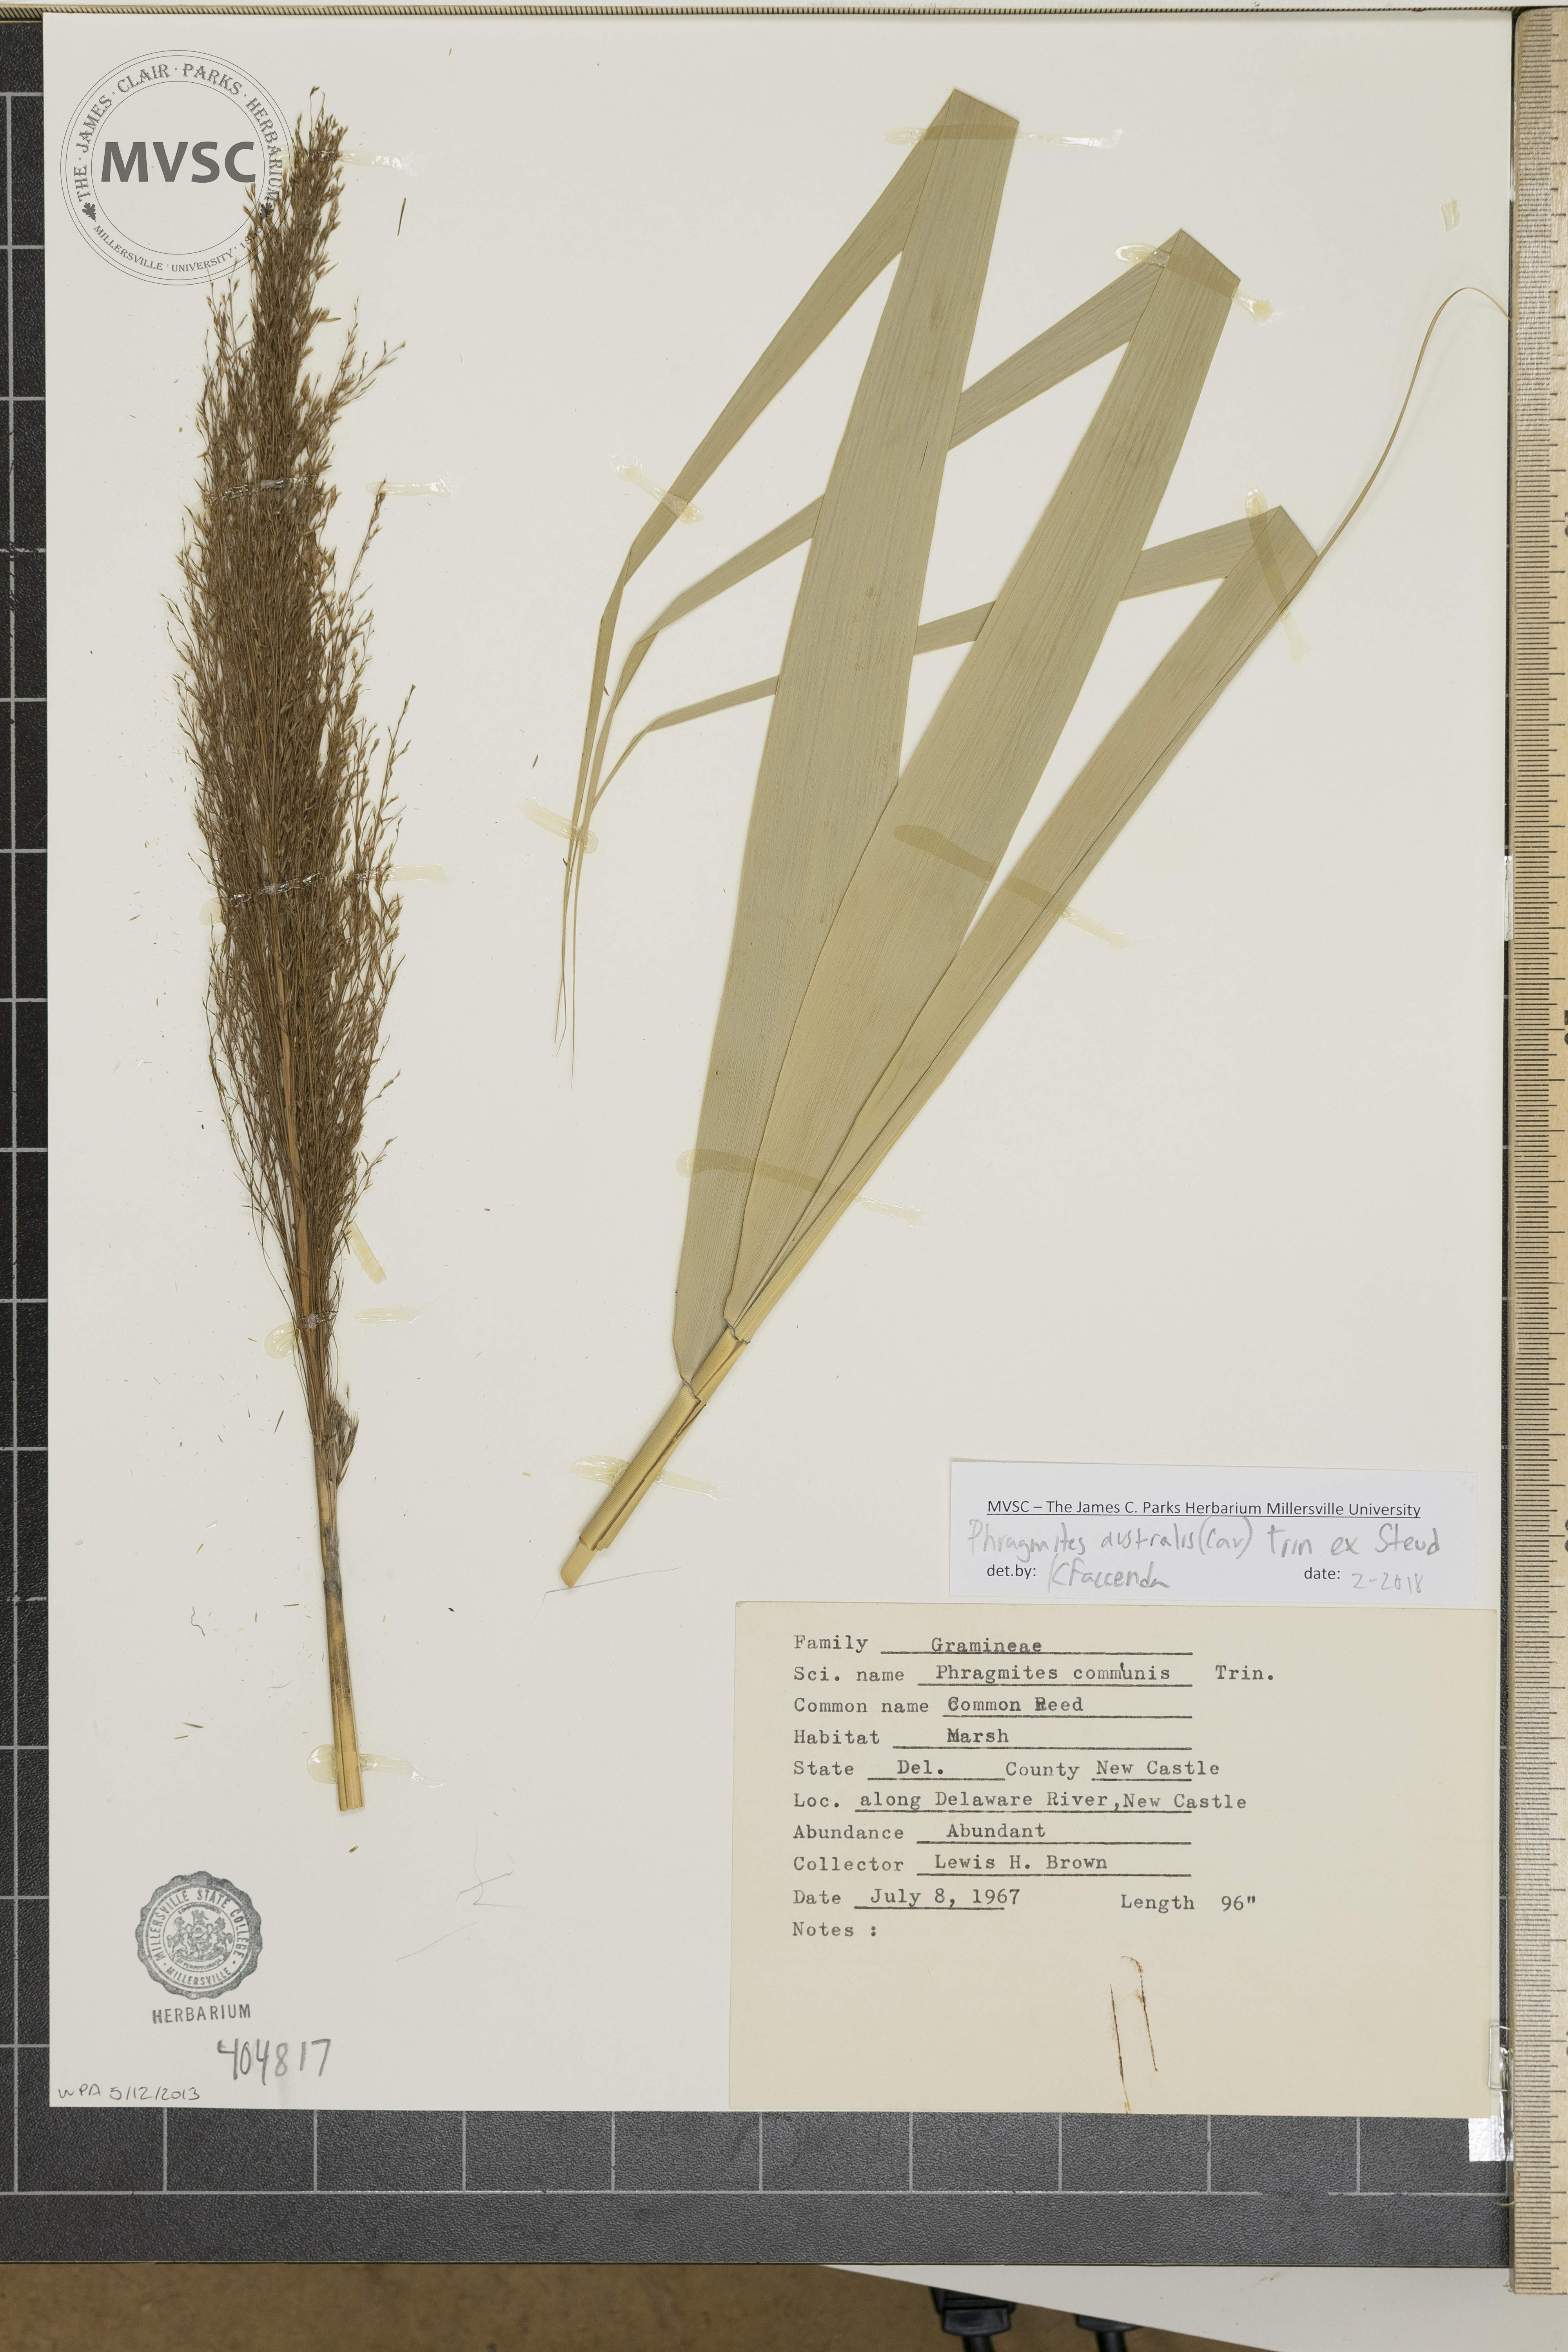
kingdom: Plantae
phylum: Tracheophyta
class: Liliopsida
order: Poales
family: Poaceae
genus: Phragmites
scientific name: Phragmites australis
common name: Common Reed
